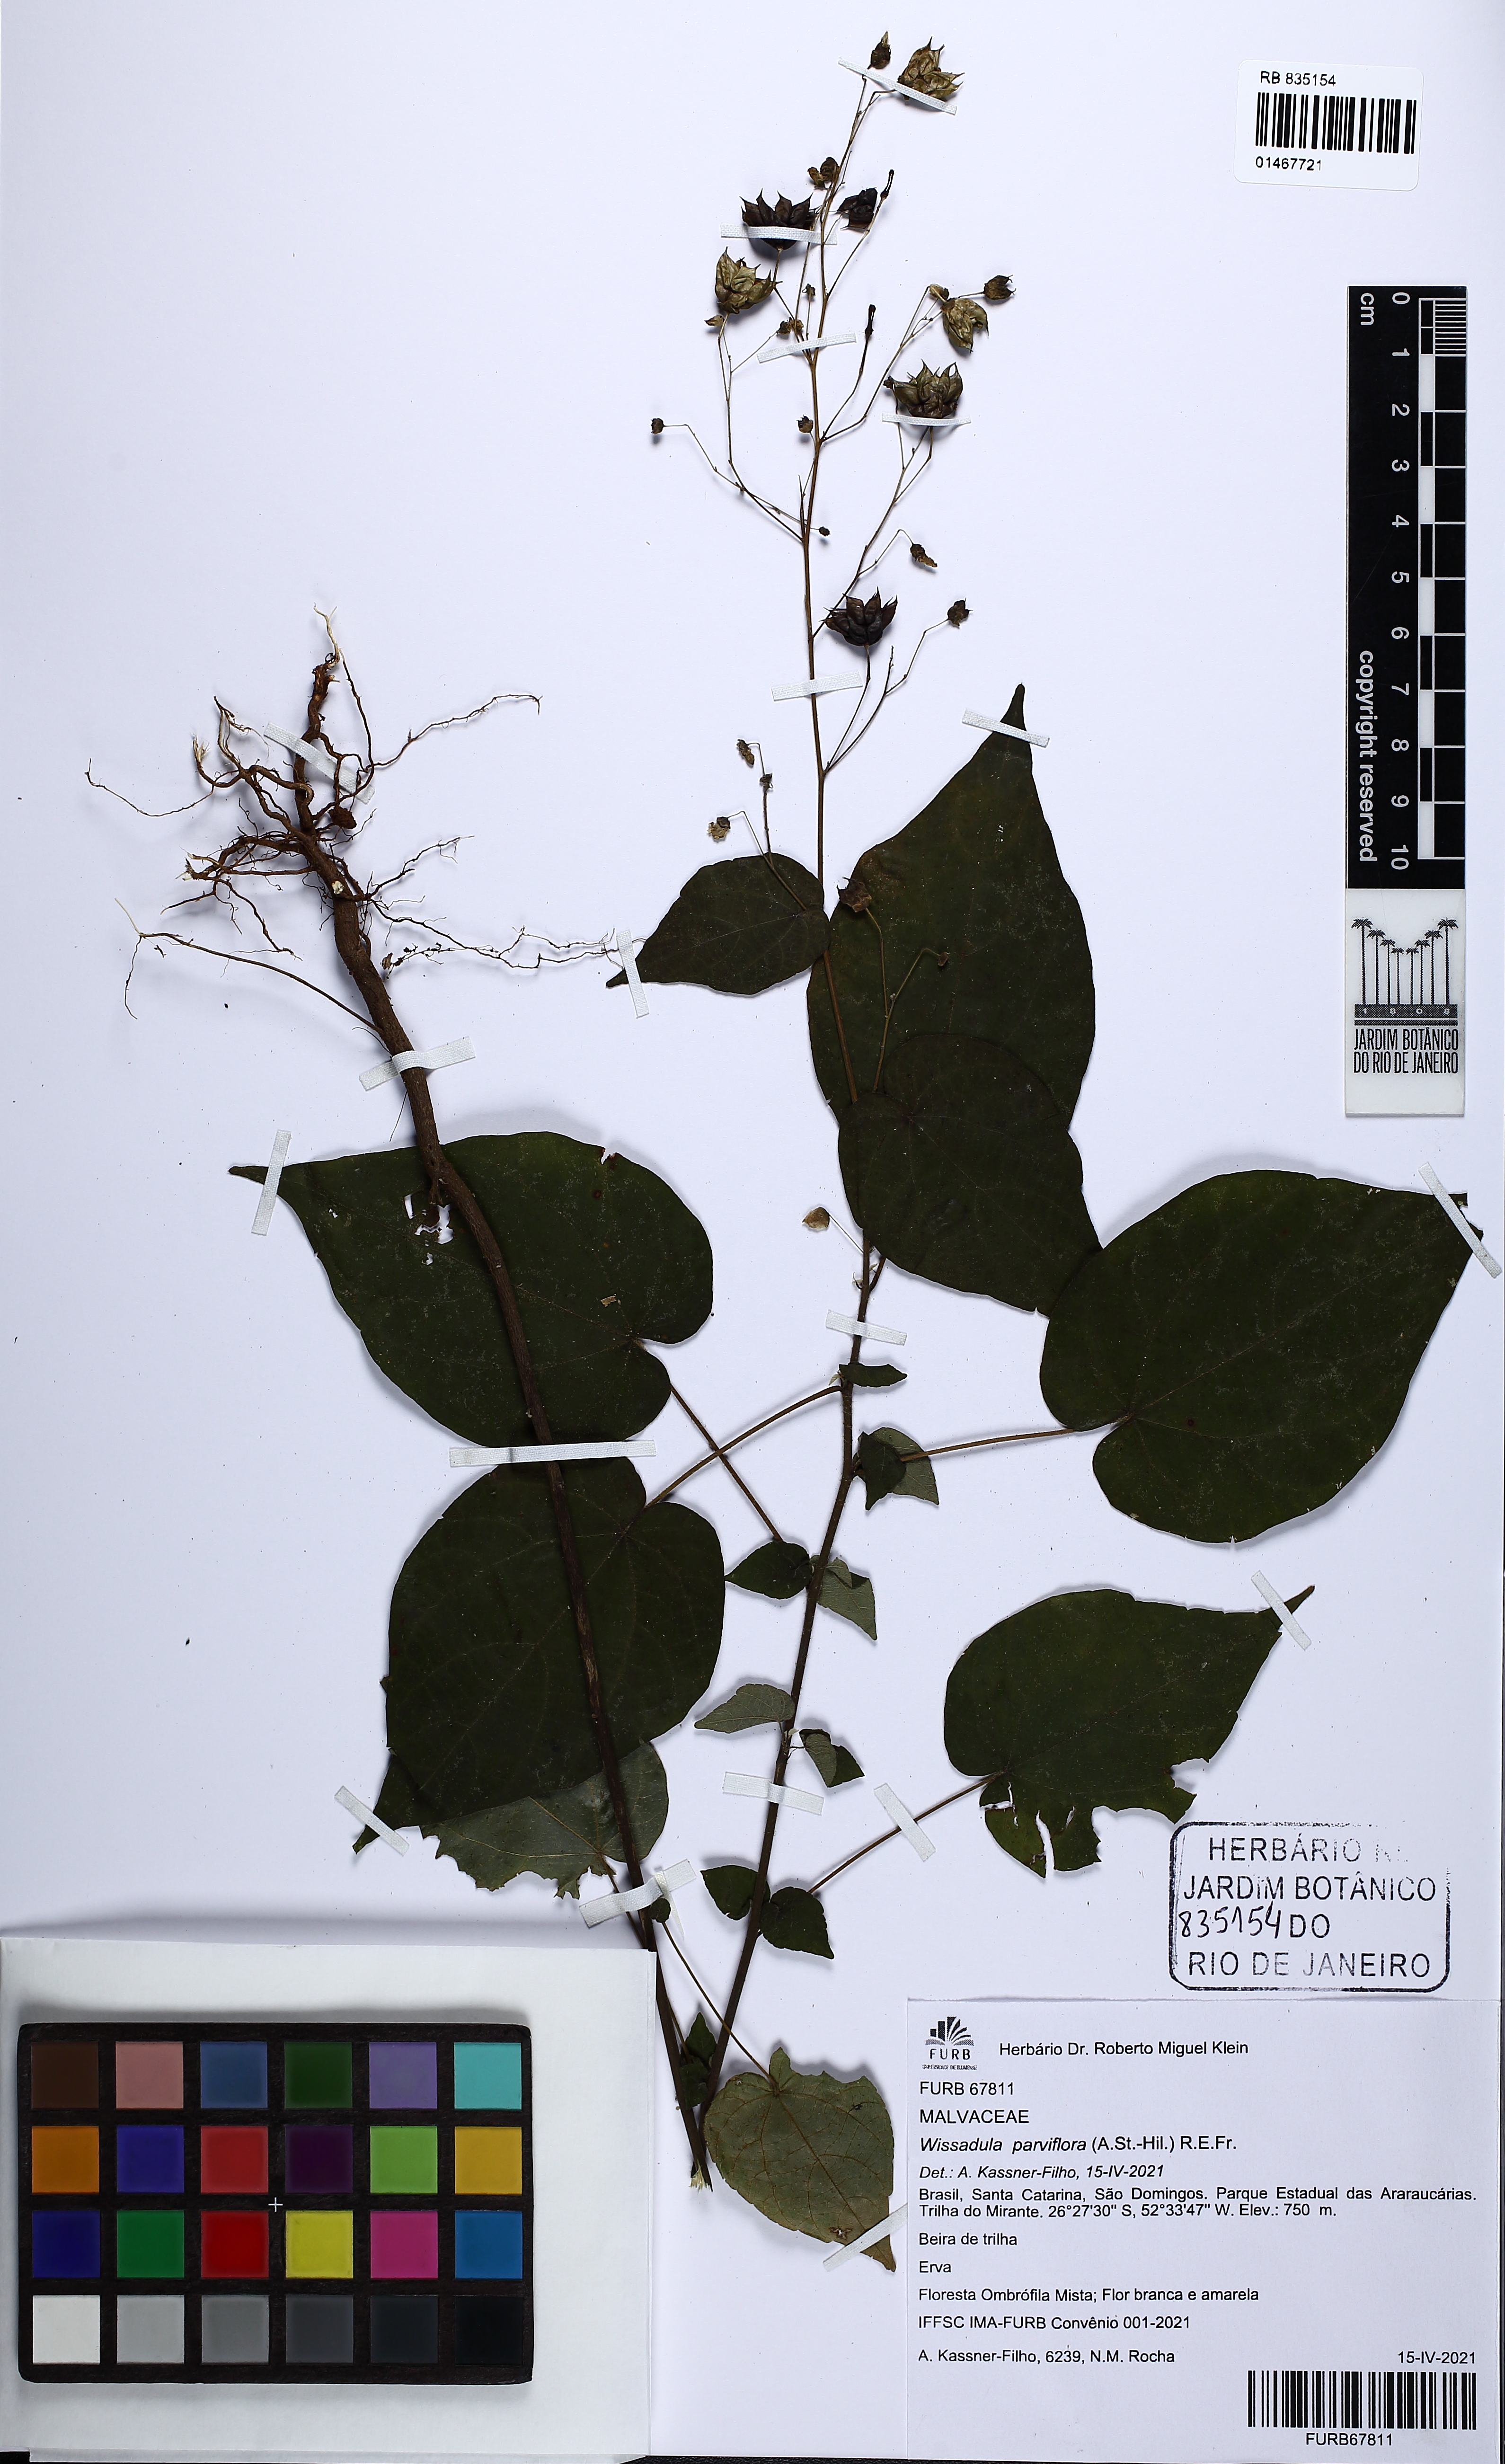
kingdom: Plantae
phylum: Tracheophyta
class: Magnoliopsida
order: Gentianales
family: Rubiaceae
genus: Cordiera
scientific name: Cordiera concolor
